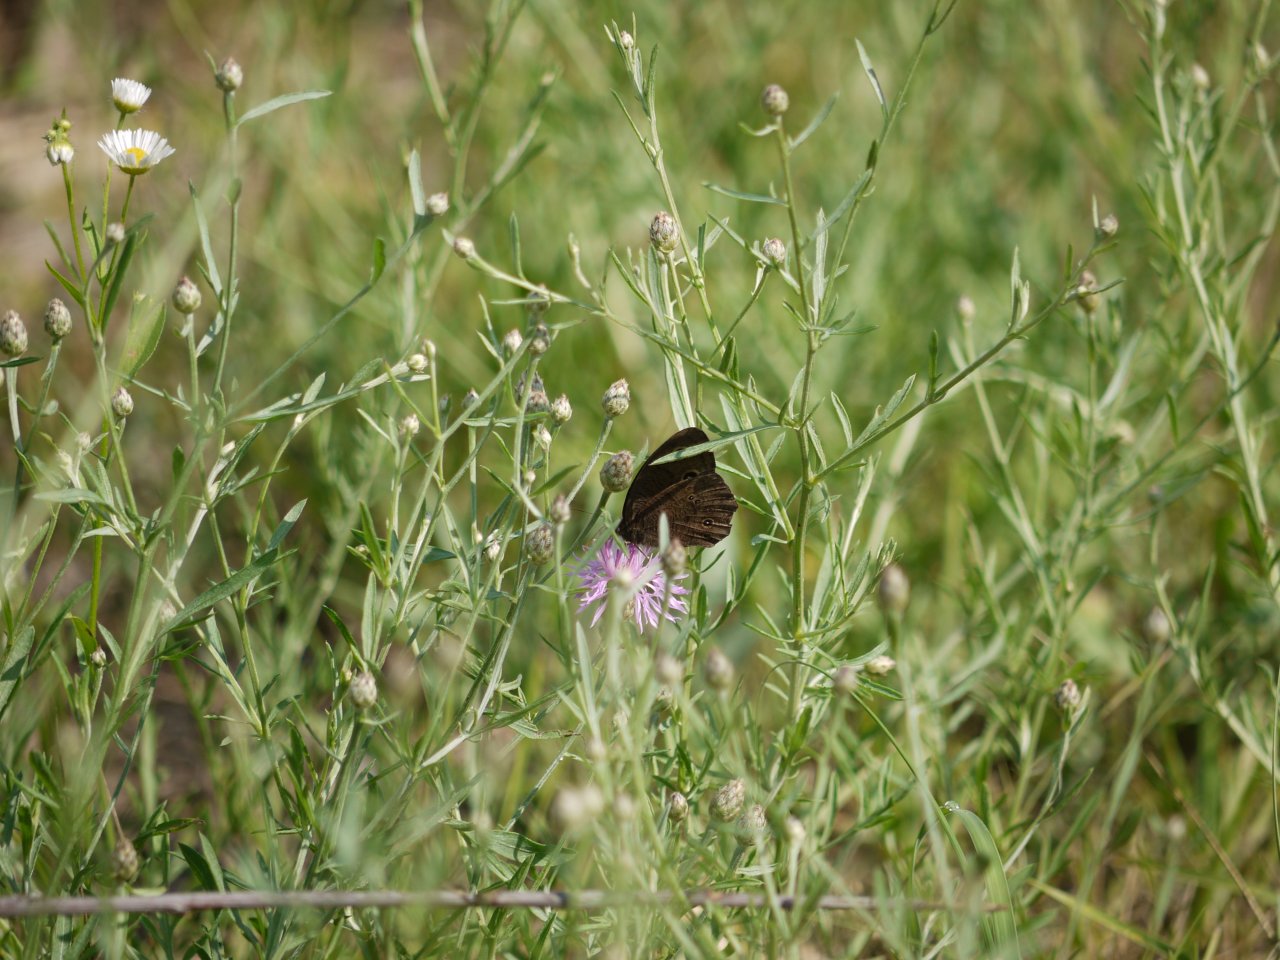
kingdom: Animalia
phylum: Arthropoda
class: Insecta
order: Lepidoptera
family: Nymphalidae
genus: Cercyonis
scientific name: Cercyonis pegala
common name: Common Wood-Nymph
